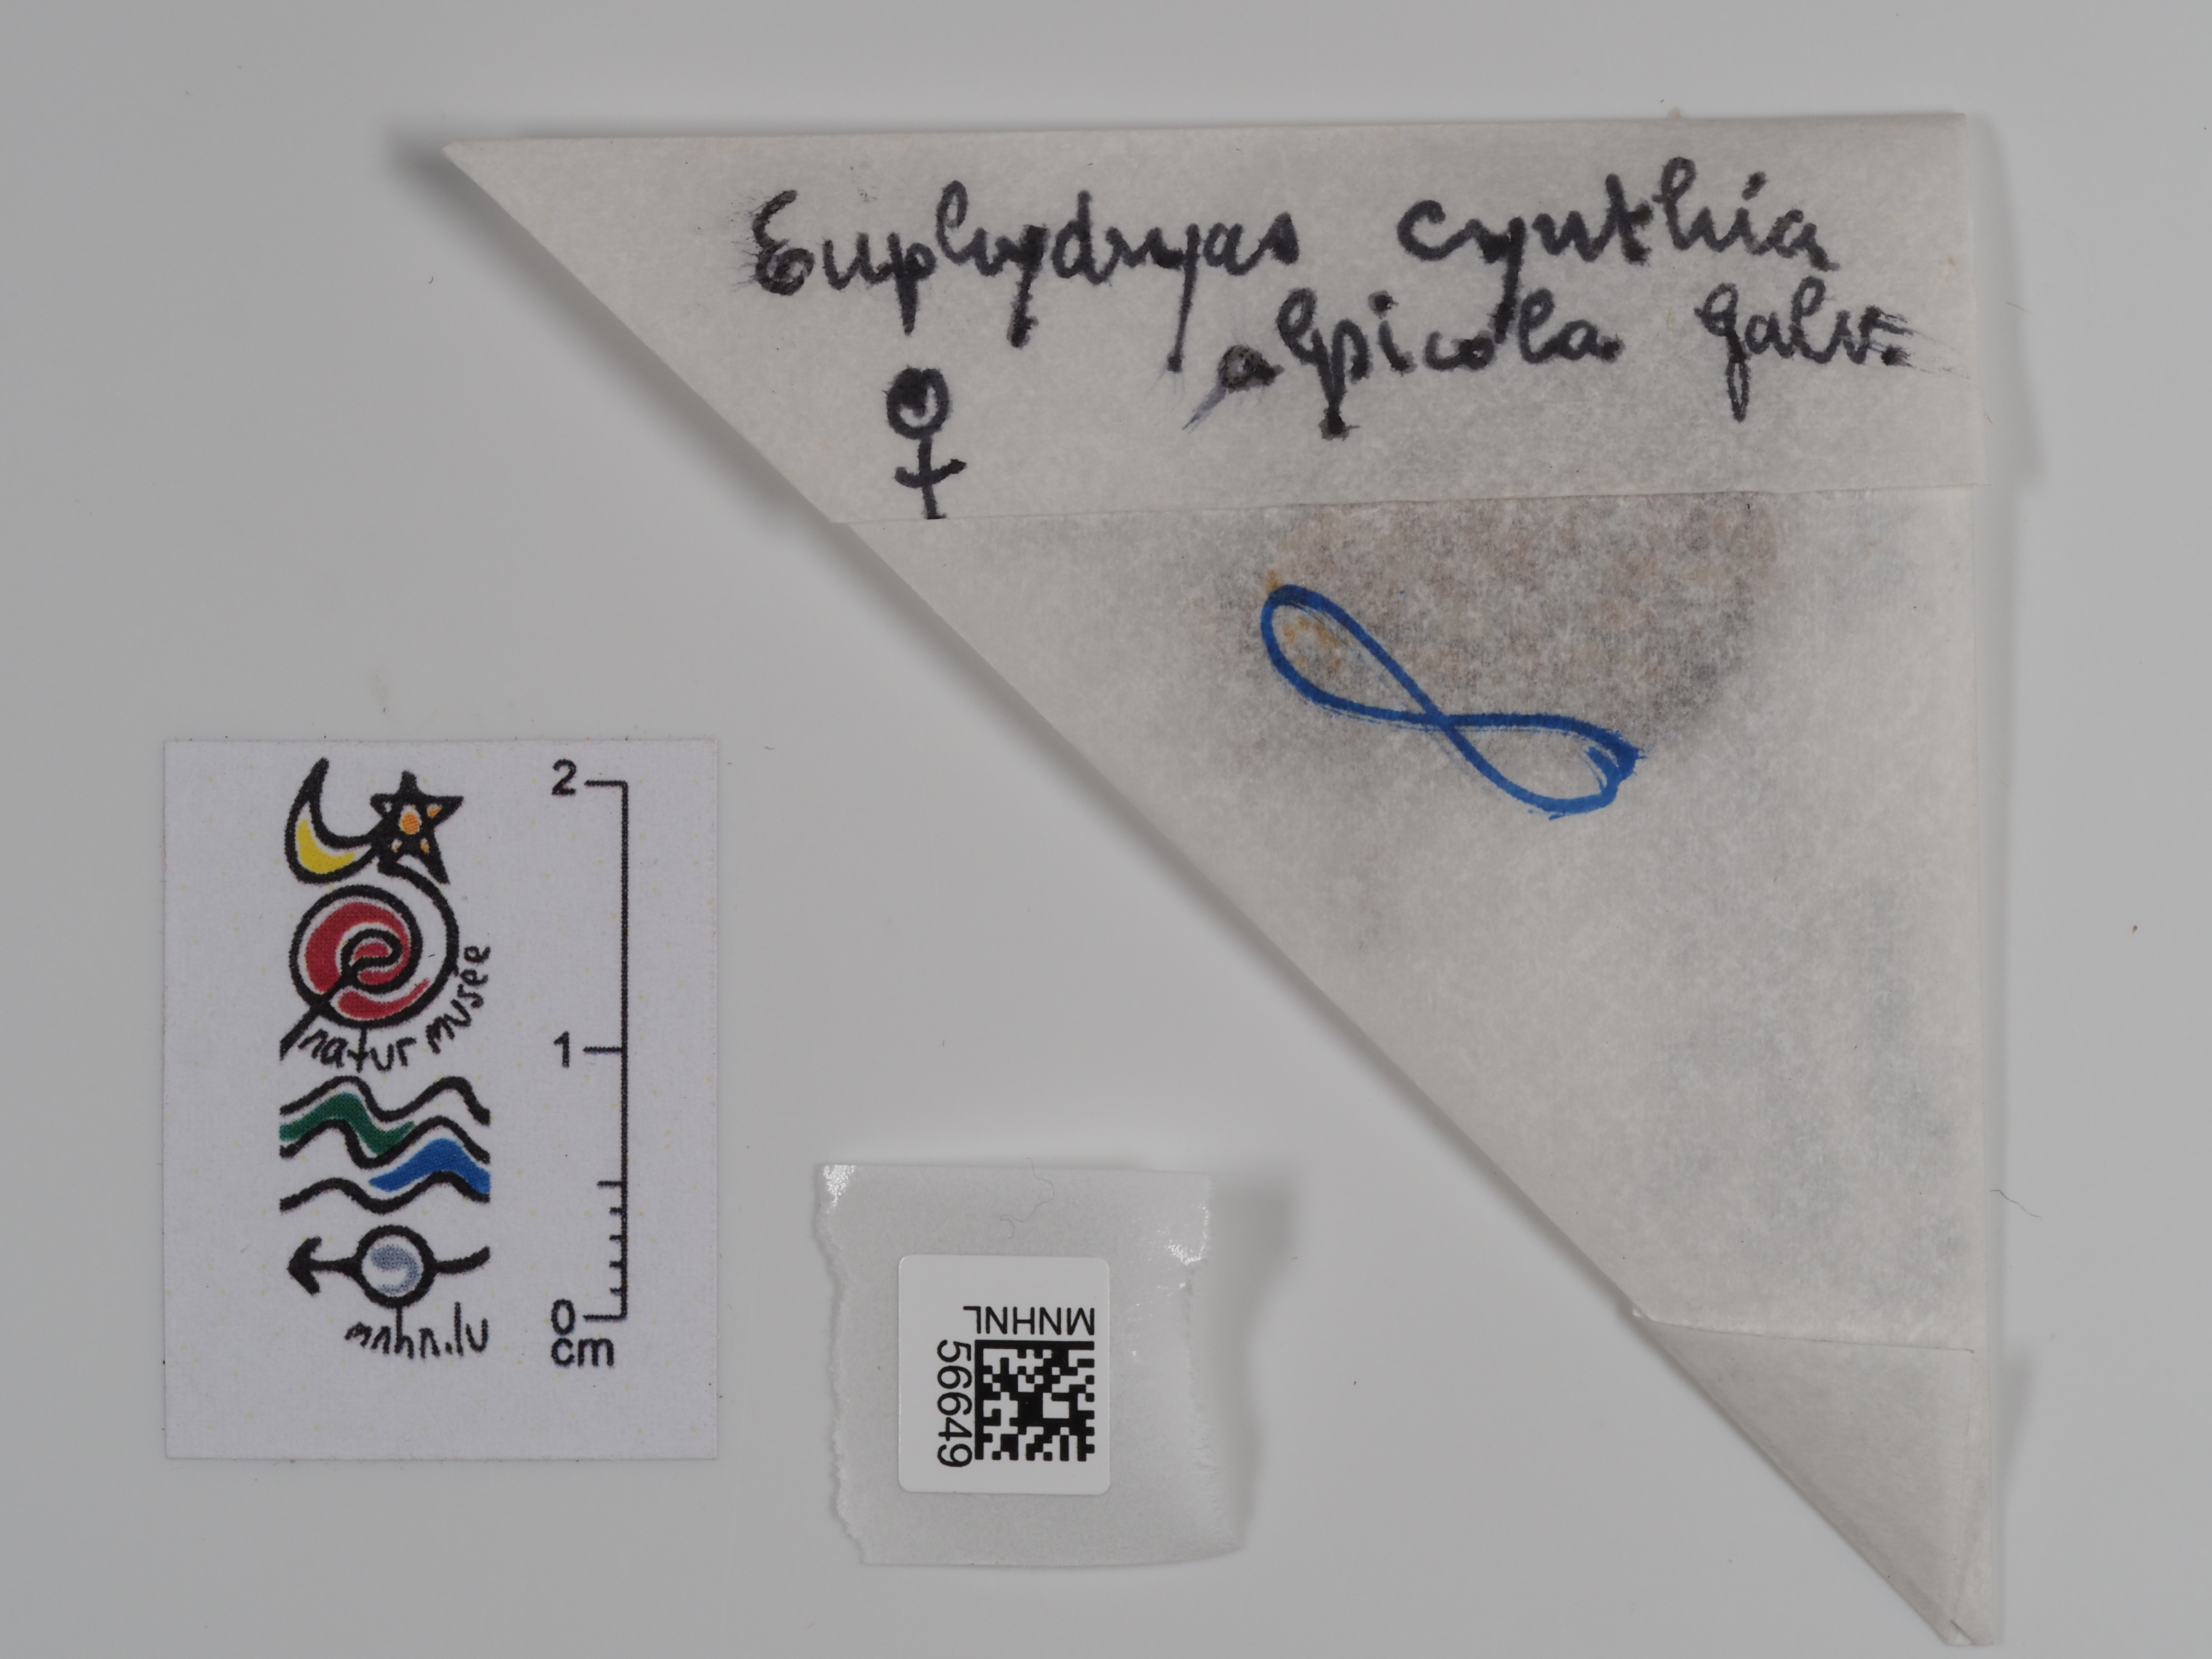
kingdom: Animalia
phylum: Arthropoda
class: Insecta
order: Lepidoptera
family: Nymphalidae
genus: Hypodryas
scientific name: Hypodryas cynthia
